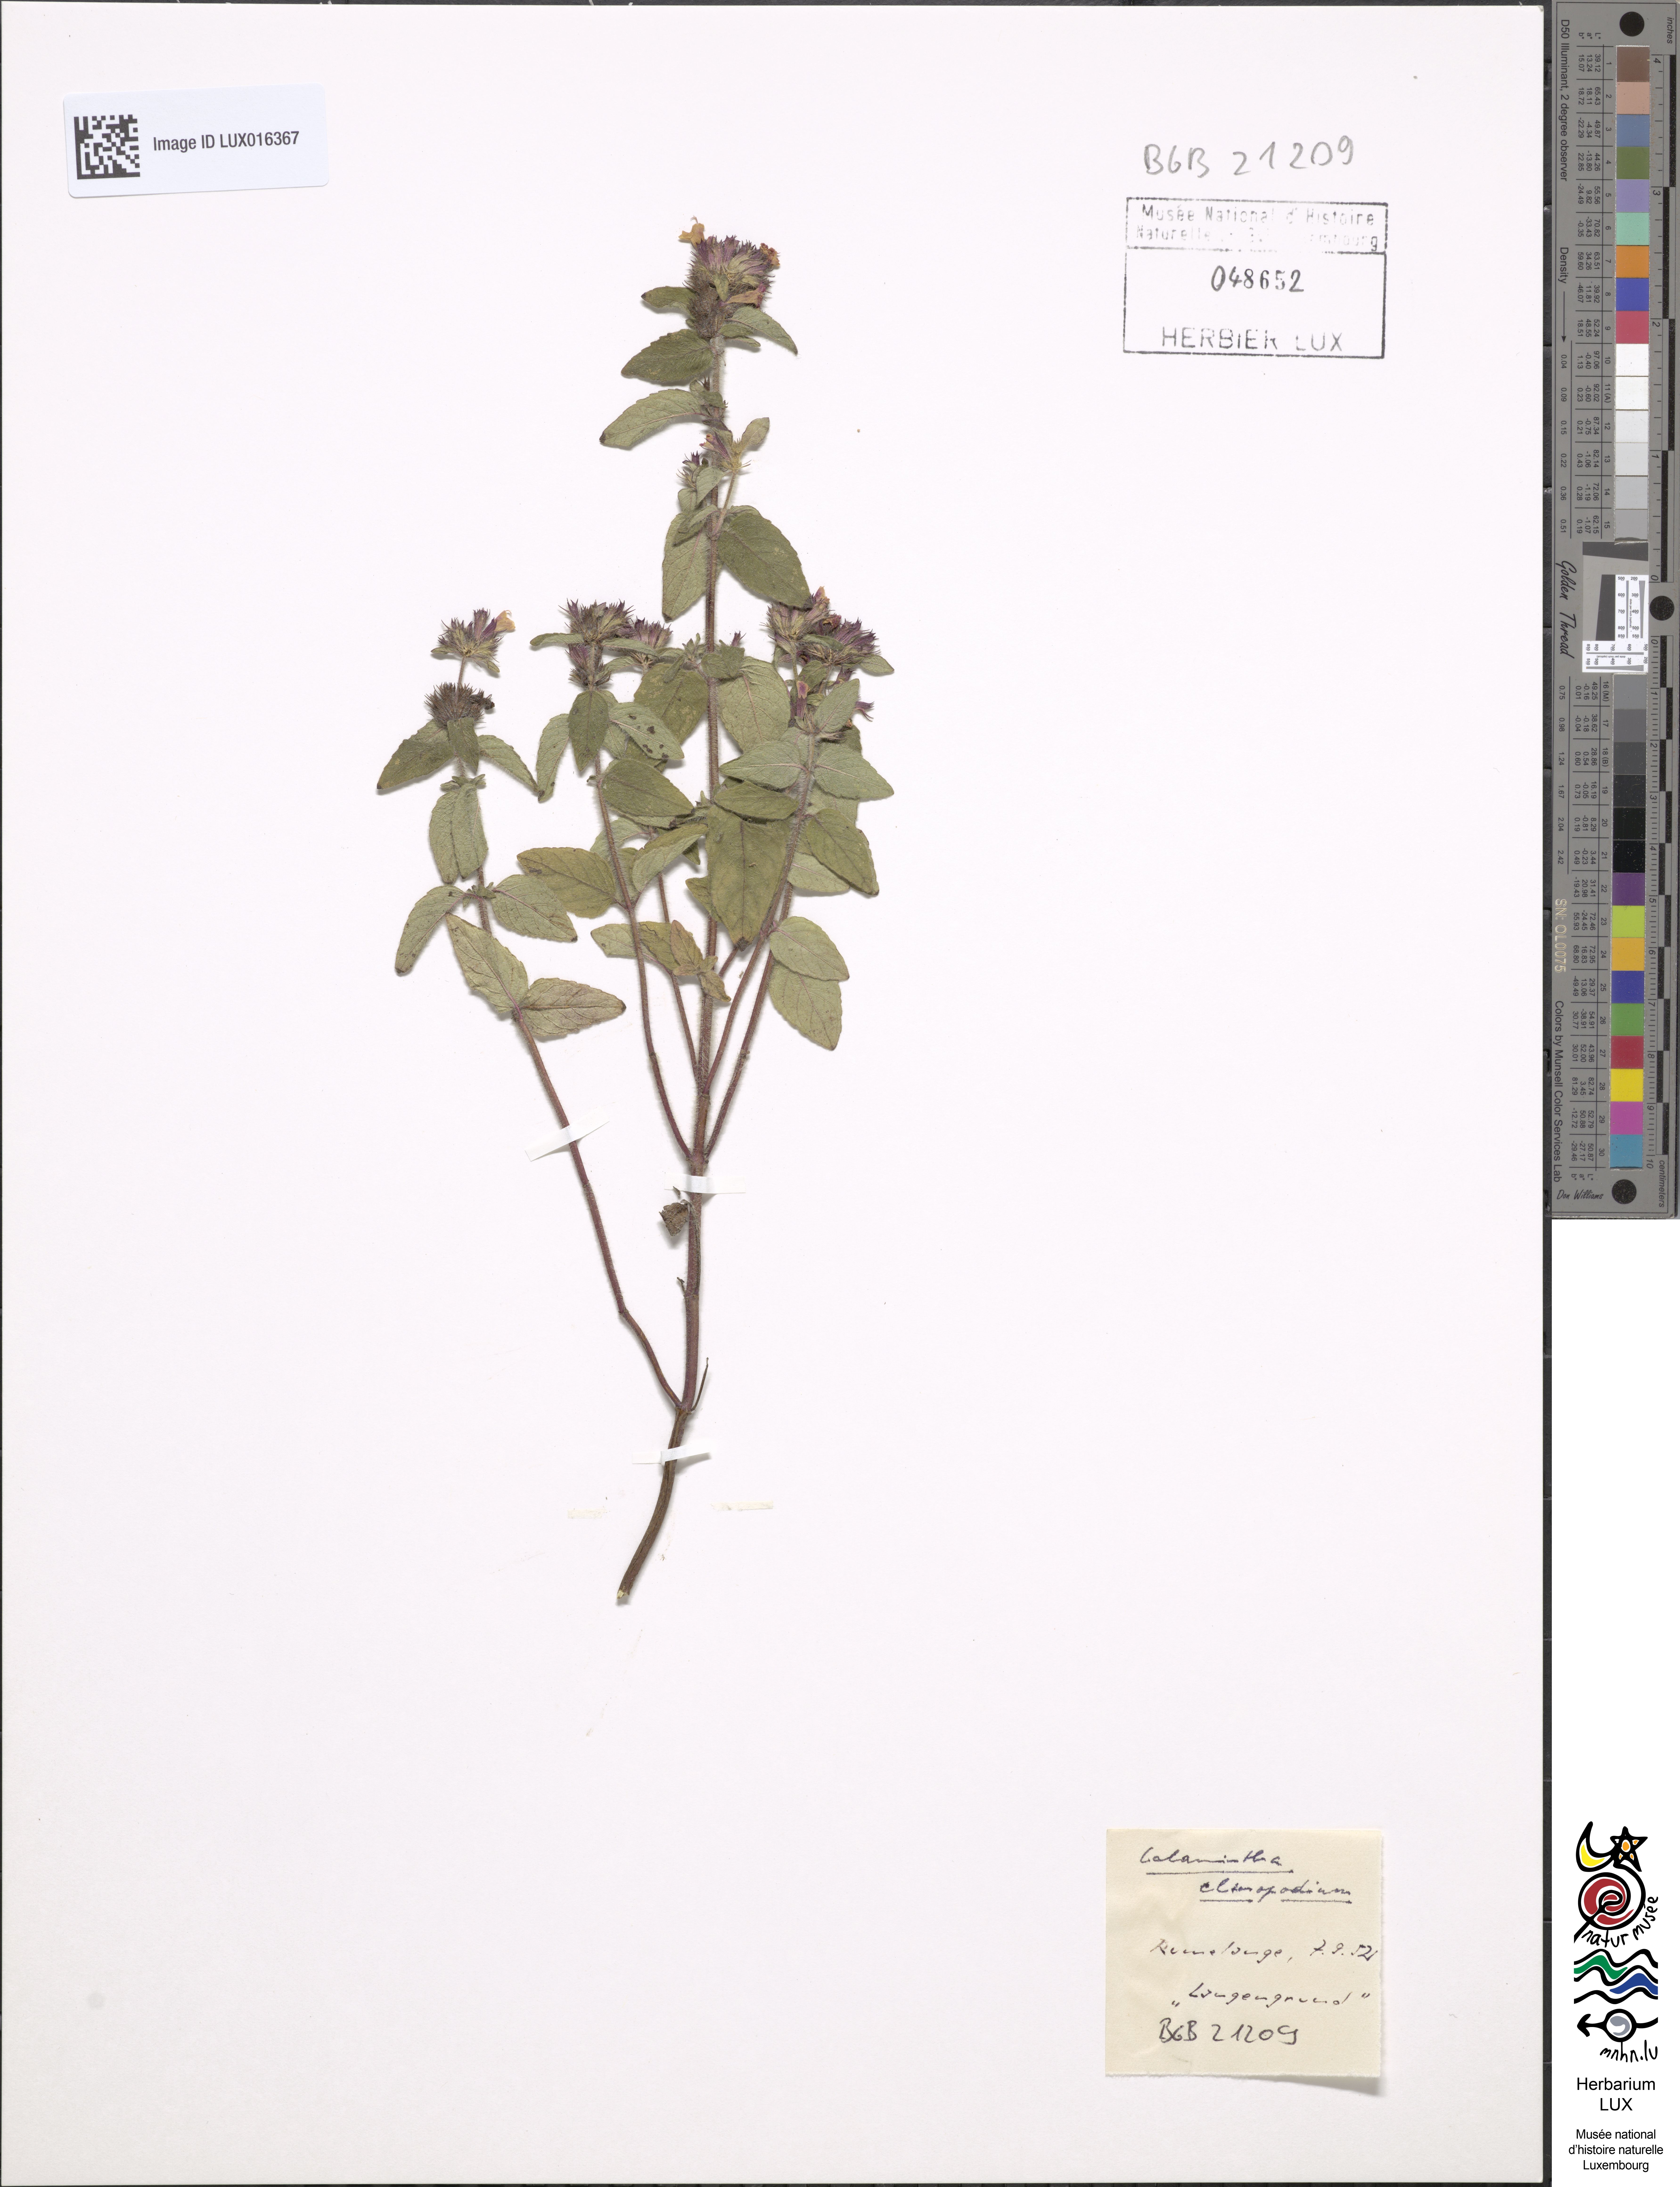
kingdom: Plantae
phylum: Tracheophyta
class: Magnoliopsida
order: Lamiales
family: Lamiaceae
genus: Clinopodium
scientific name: Clinopodium vulgare
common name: Wild basil
